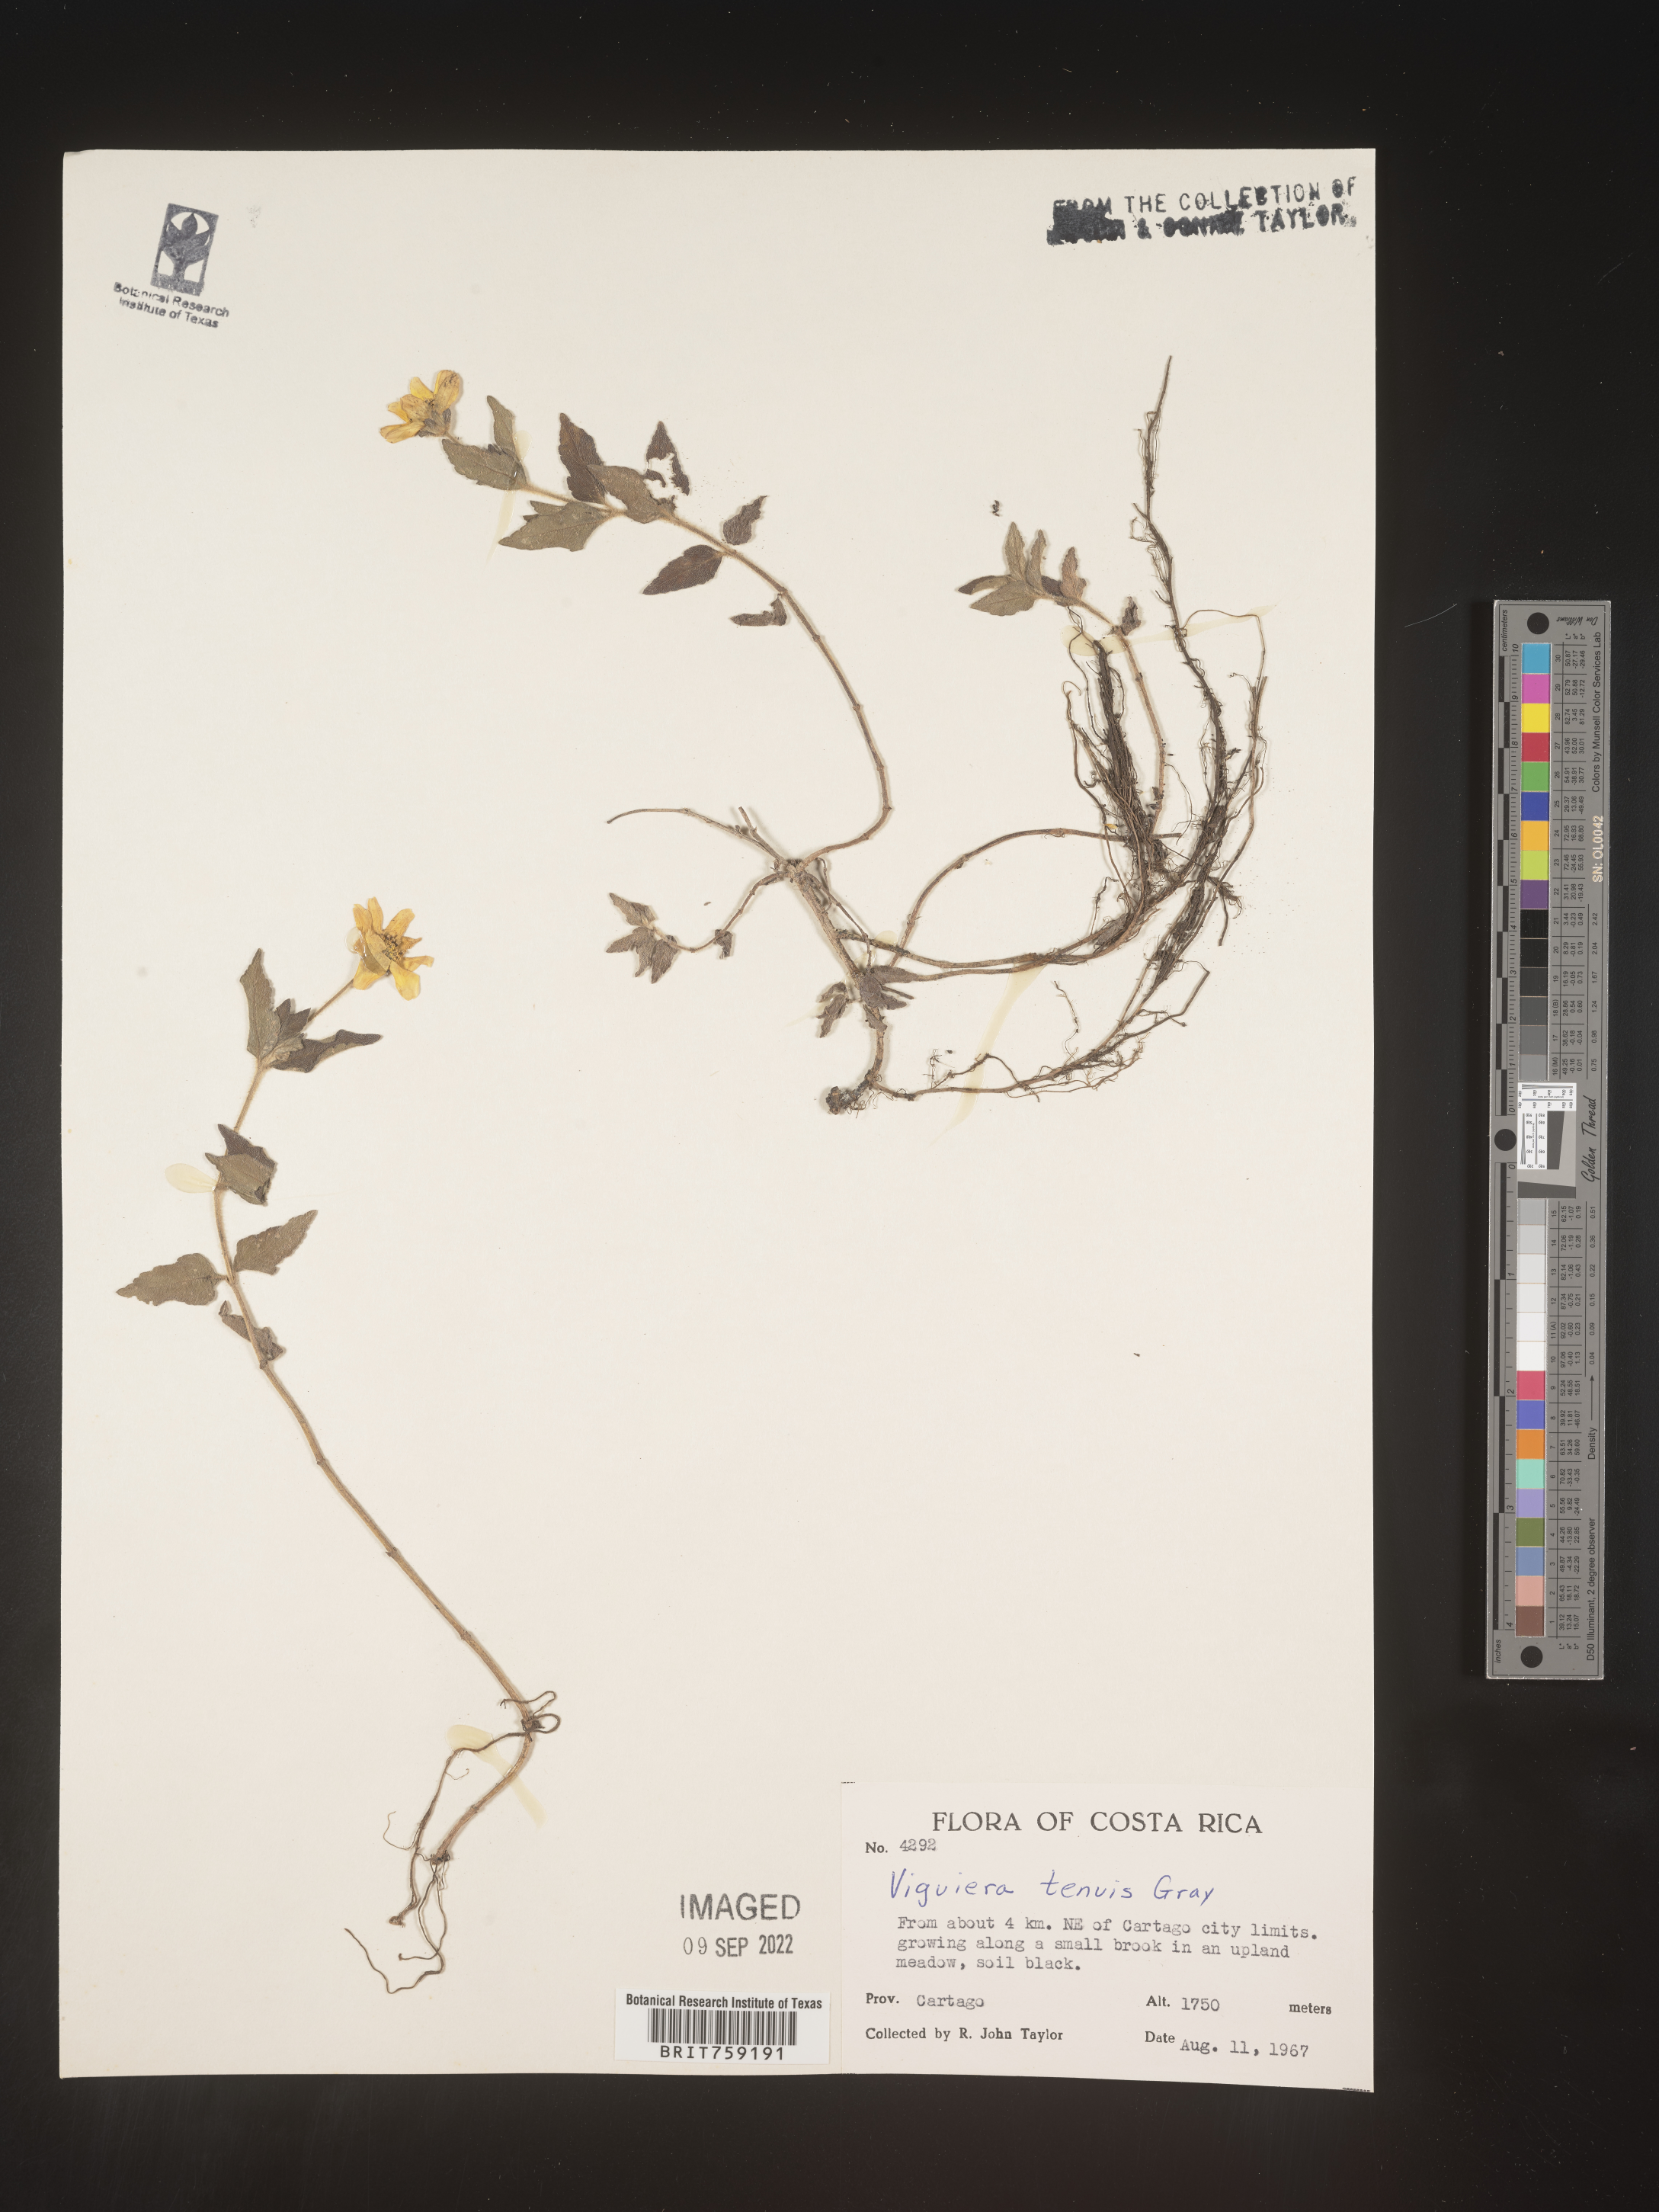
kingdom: Plantae
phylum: Tracheophyta
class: Magnoliopsida
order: Asterales
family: Asteraceae
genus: Viguiera
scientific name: Viguiera
